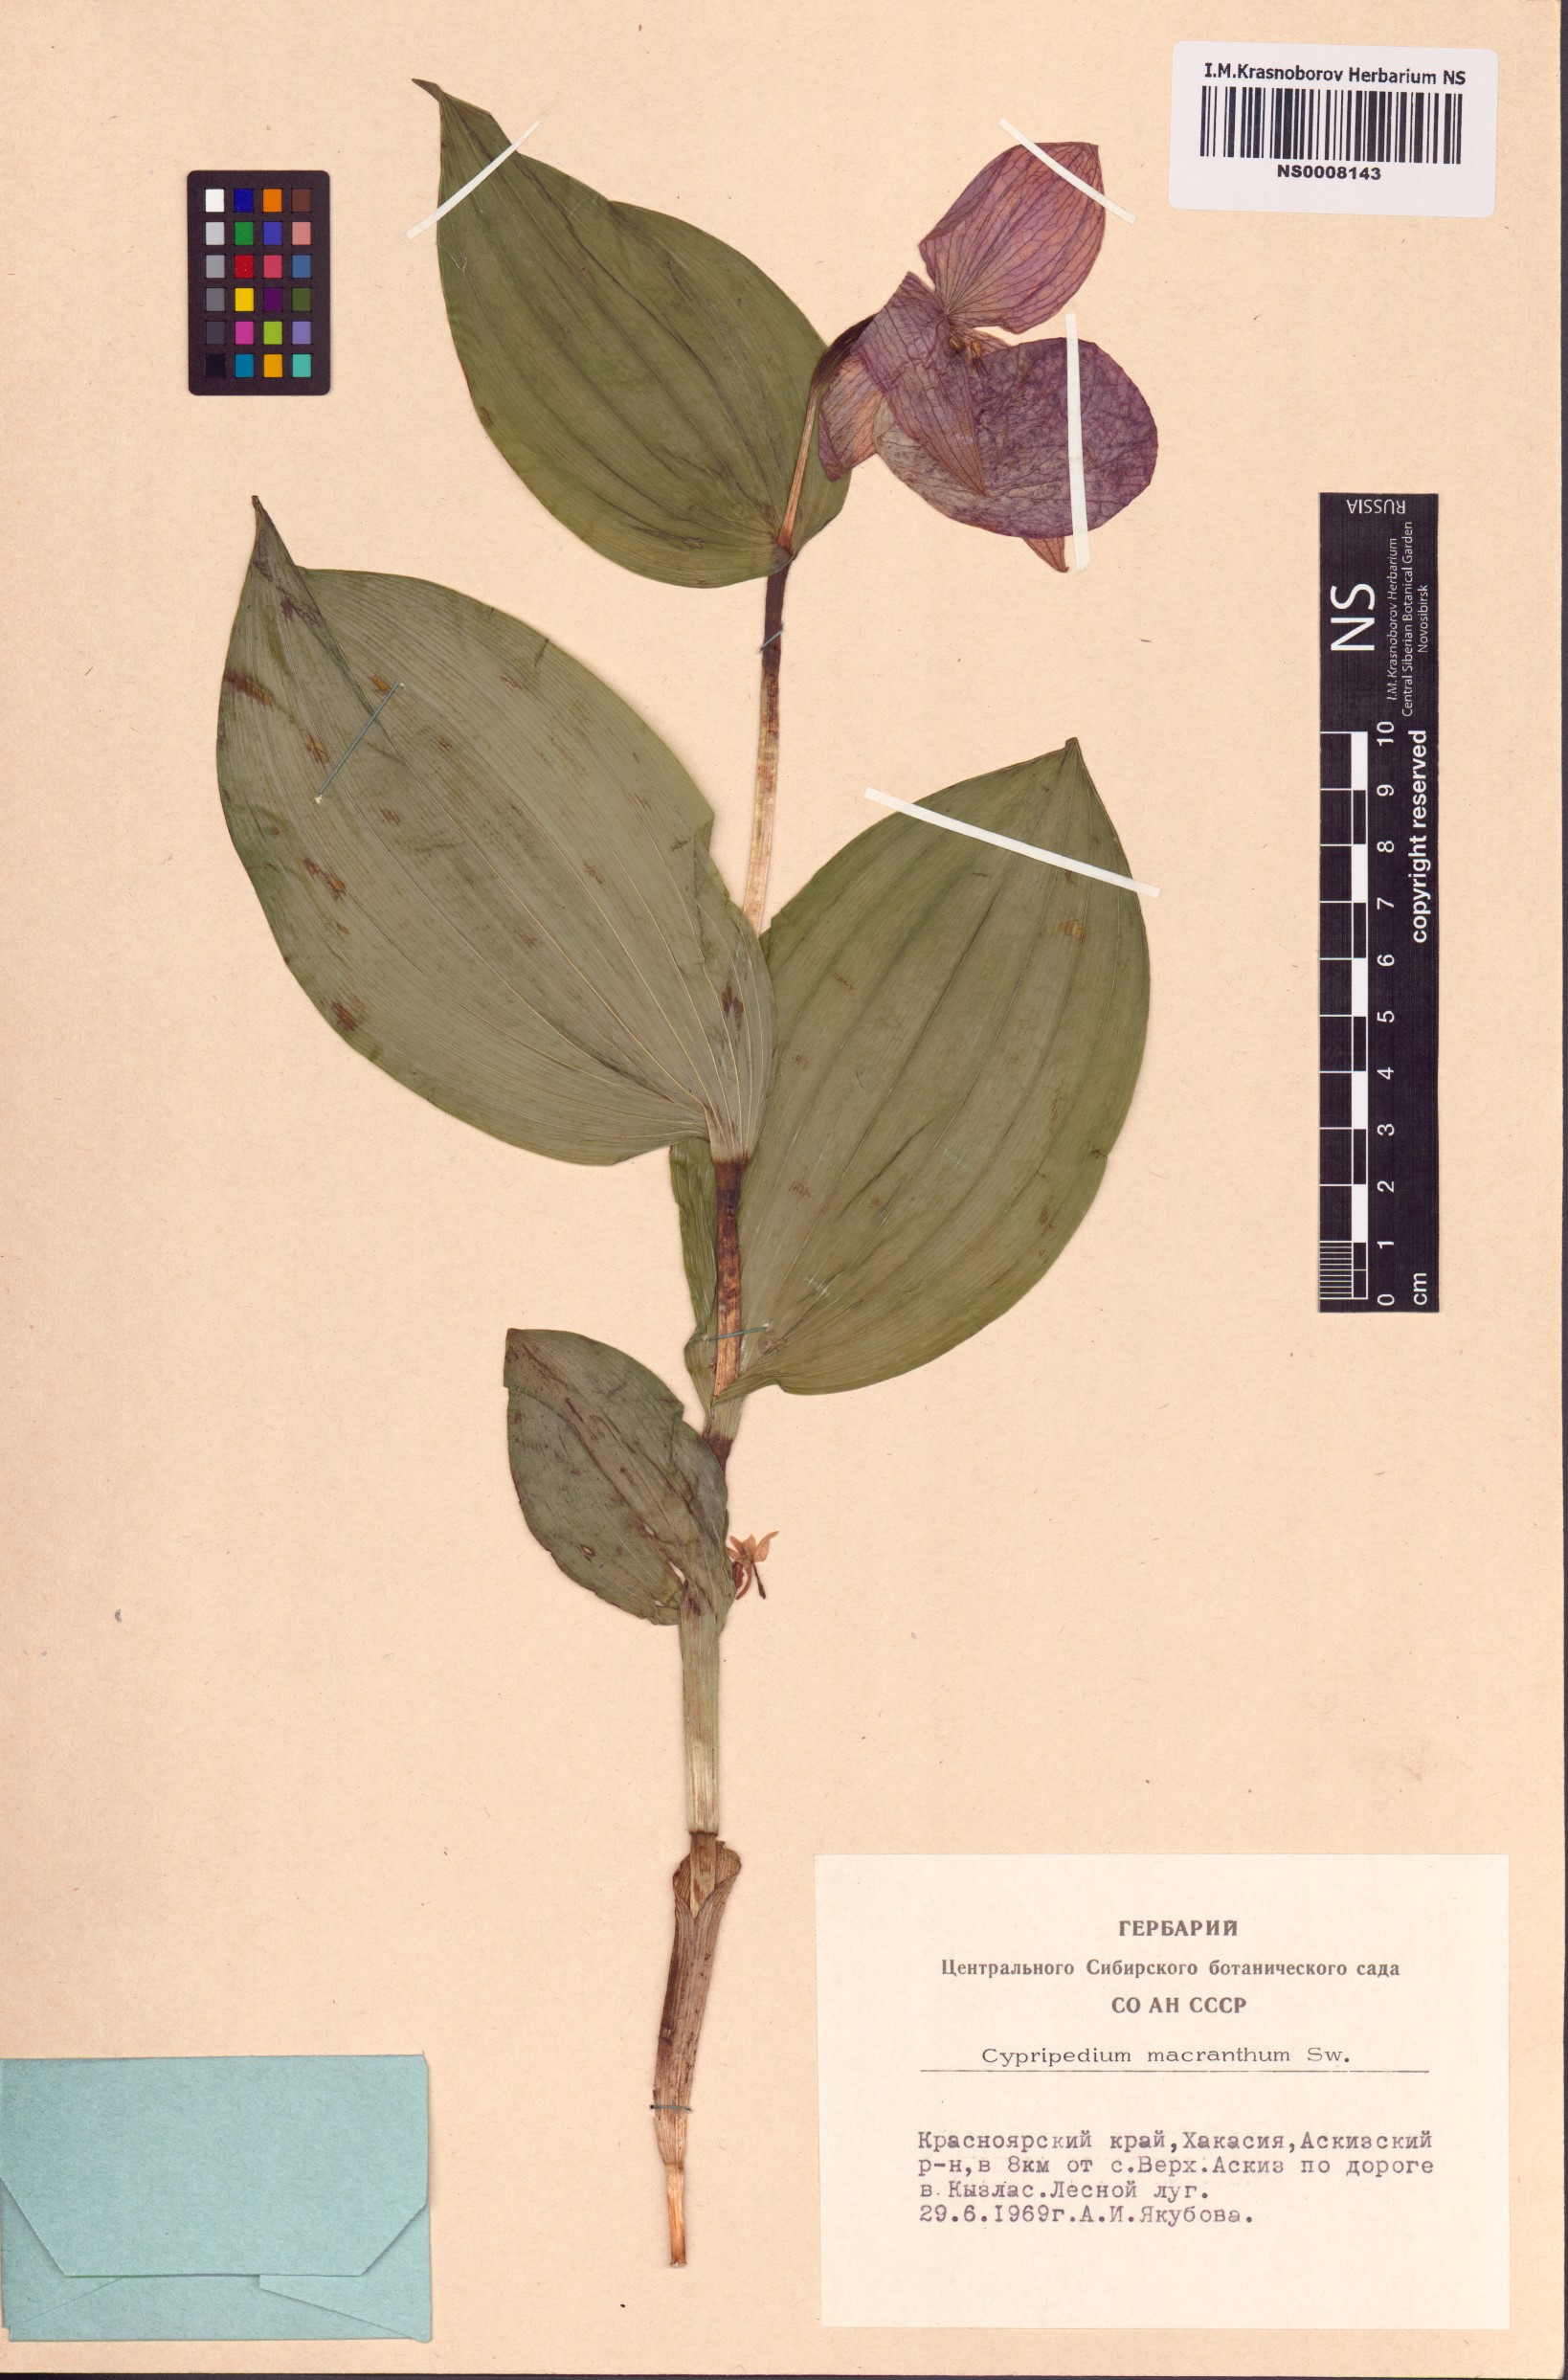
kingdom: Plantae
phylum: Tracheophyta
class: Liliopsida
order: Asparagales
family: Orchidaceae
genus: Cypripedium
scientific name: Cypripedium macranthos
